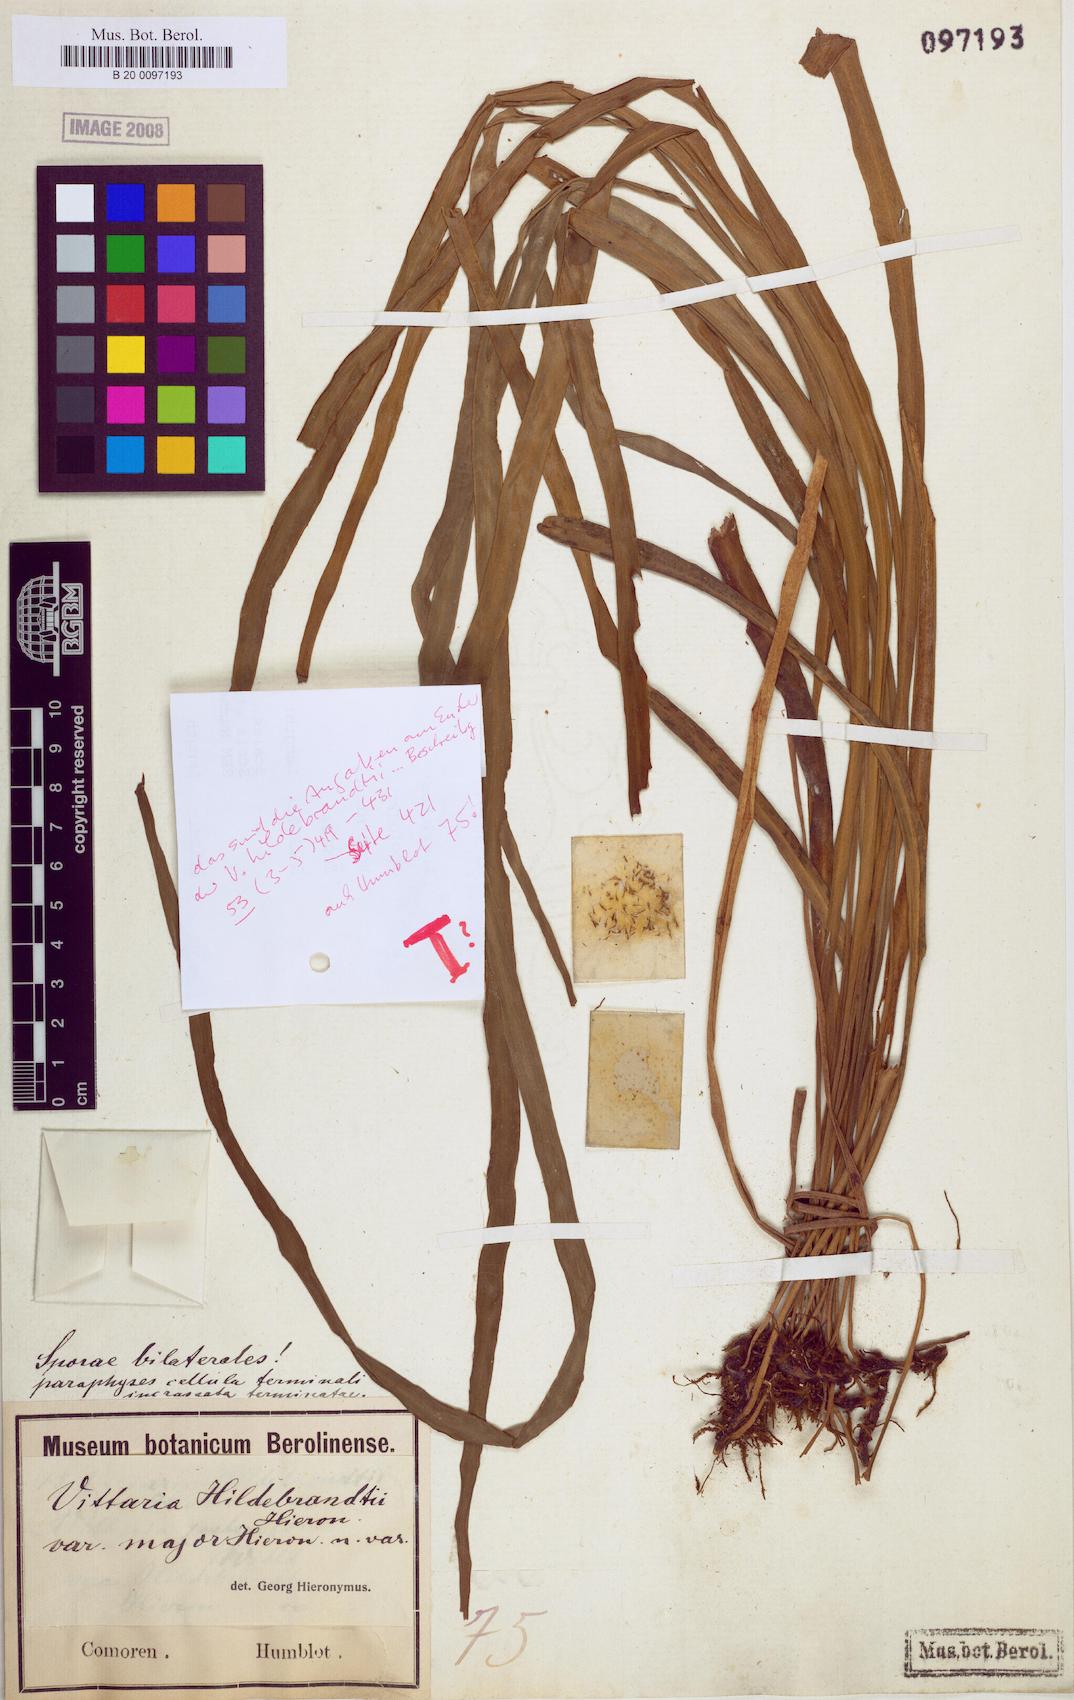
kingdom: Plantae
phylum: Tracheophyta
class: Polypodiopsida
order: Polypodiales
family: Pteridaceae
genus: Haplopteris
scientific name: Haplopteris elongata
